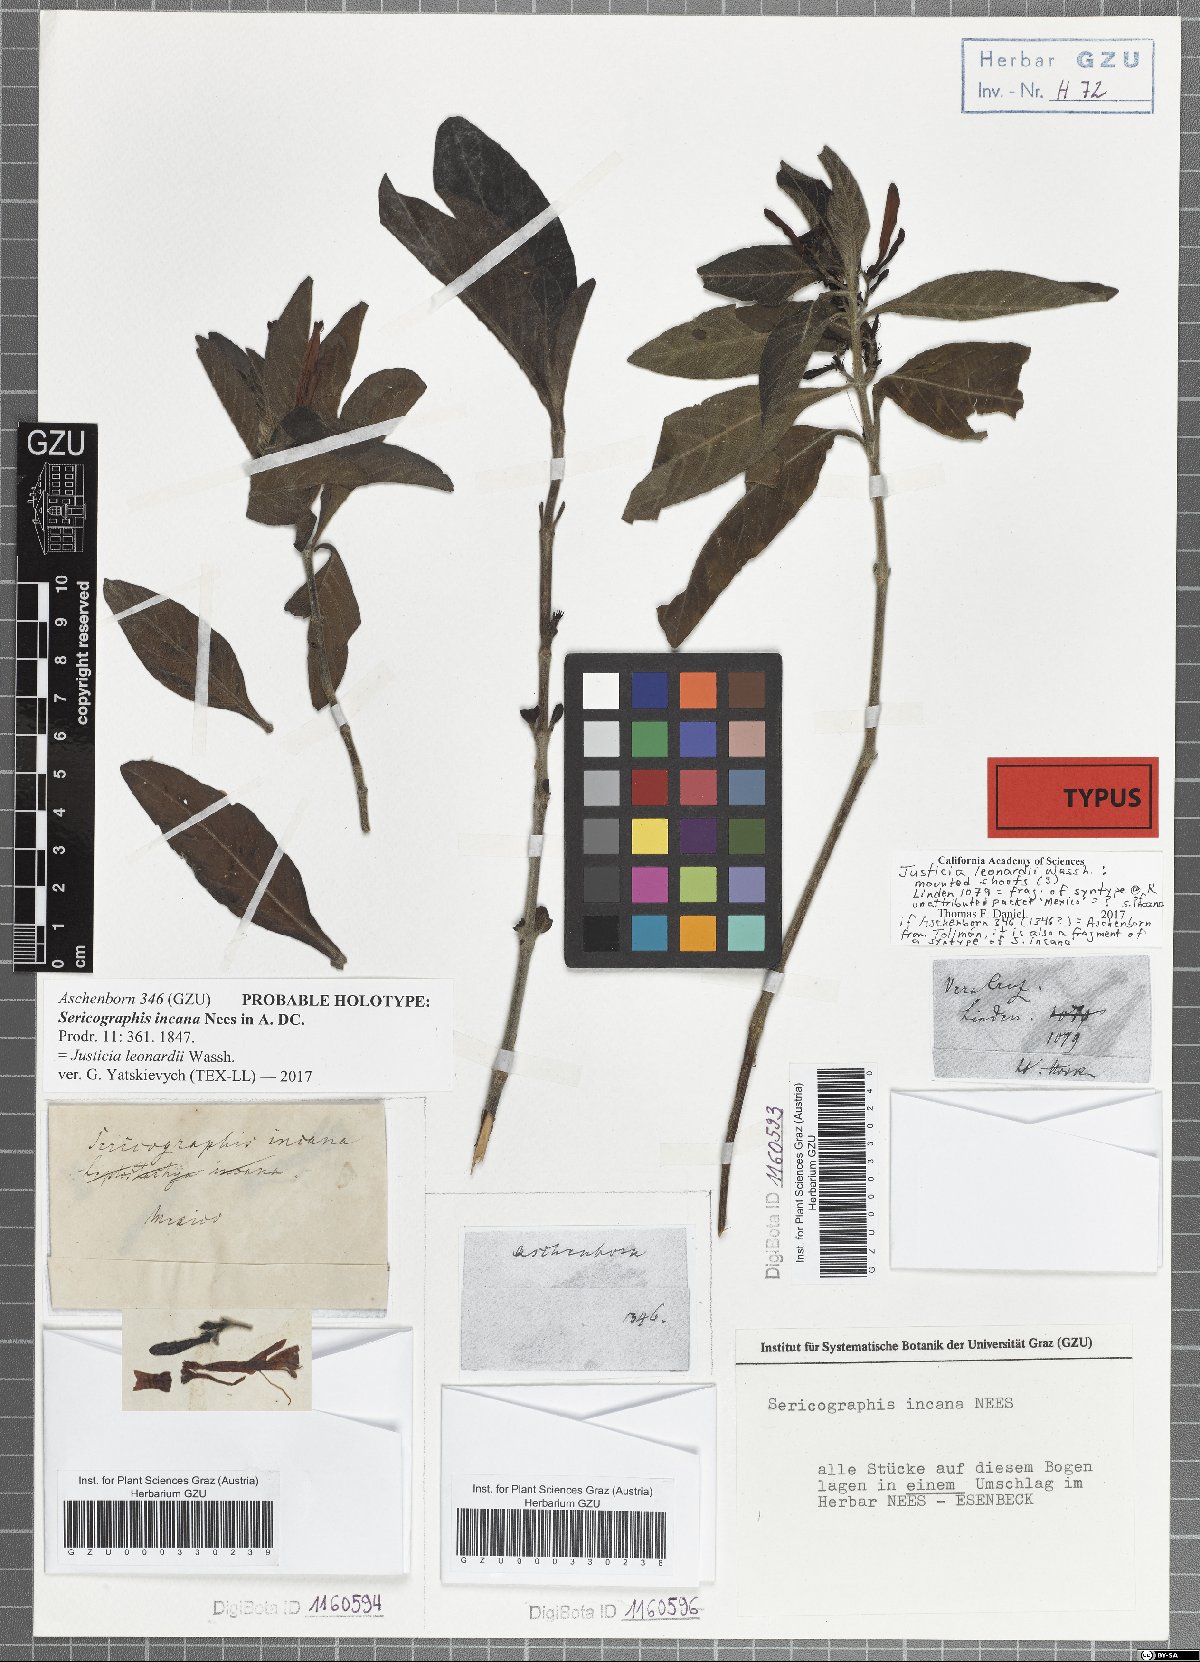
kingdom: Plantae
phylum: Tracheophyta
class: Magnoliopsida
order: Lamiales
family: Acanthaceae
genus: Justicia
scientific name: Justicia leonardii
